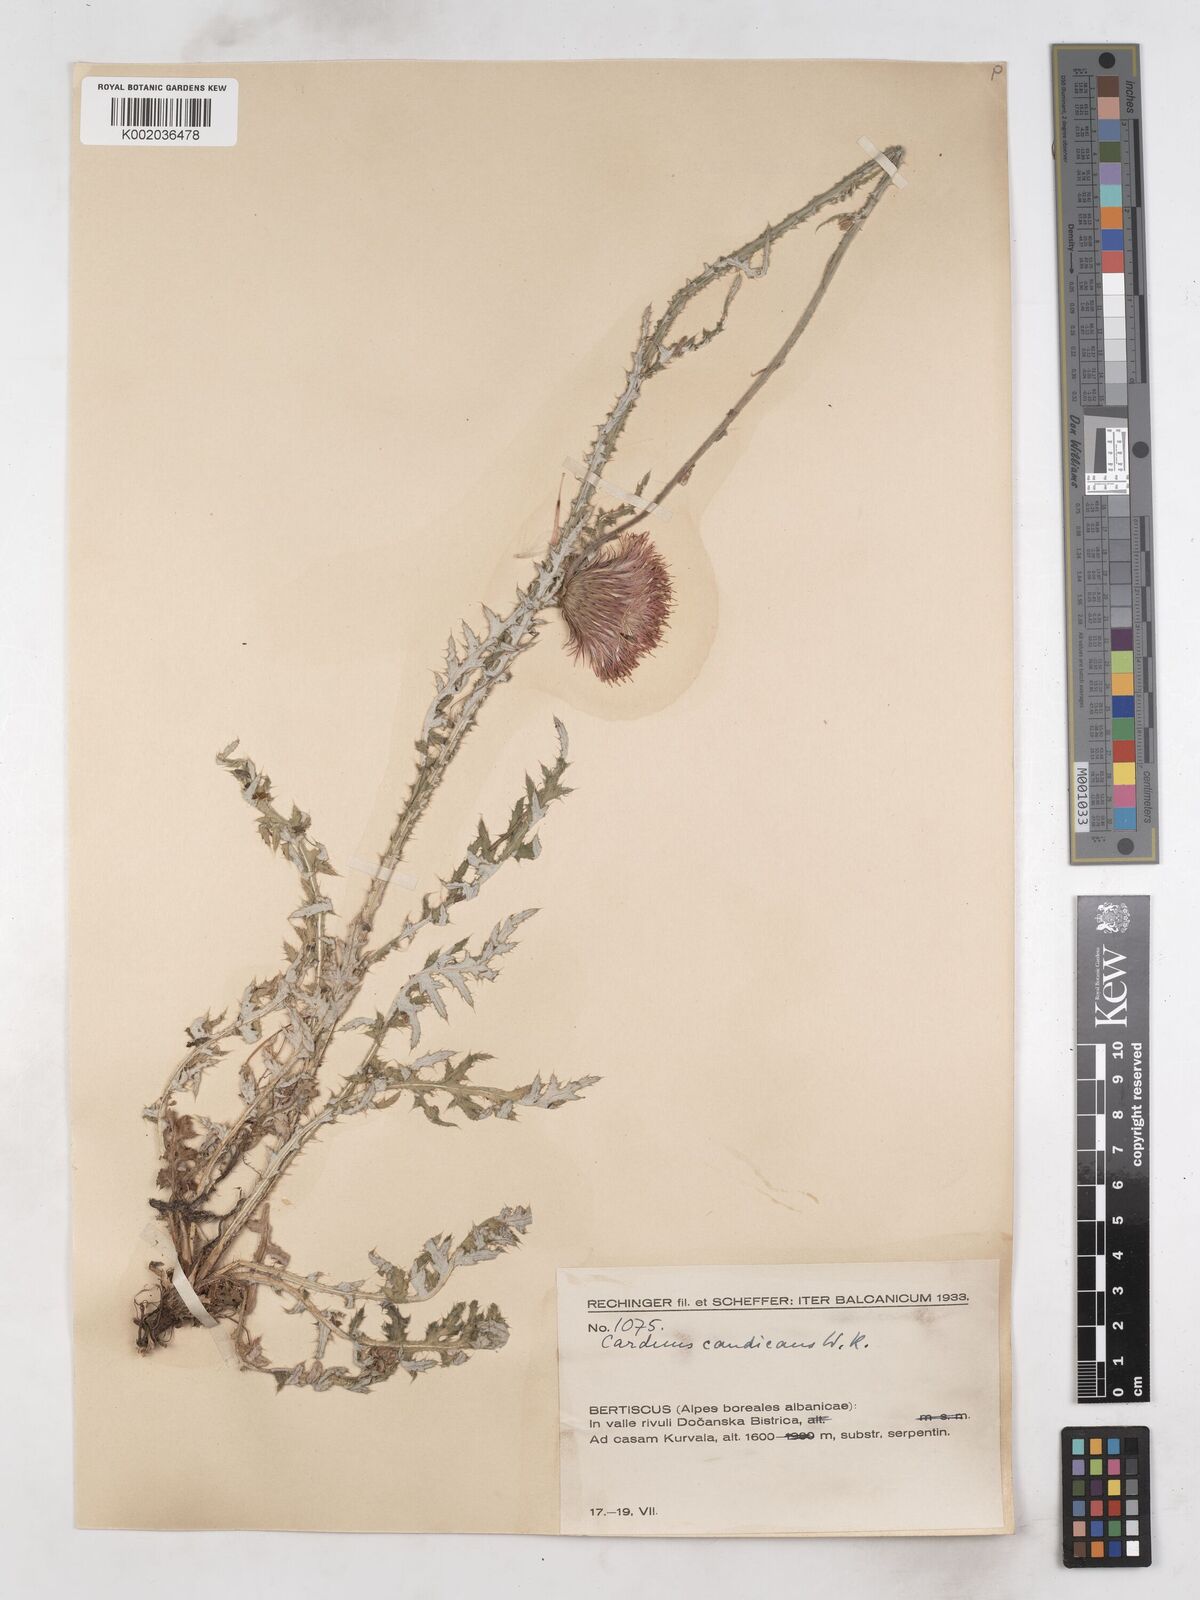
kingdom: Plantae
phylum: Tracheophyta
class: Magnoliopsida
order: Asterales
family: Asteraceae
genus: Carduus
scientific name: Carduus candicans
